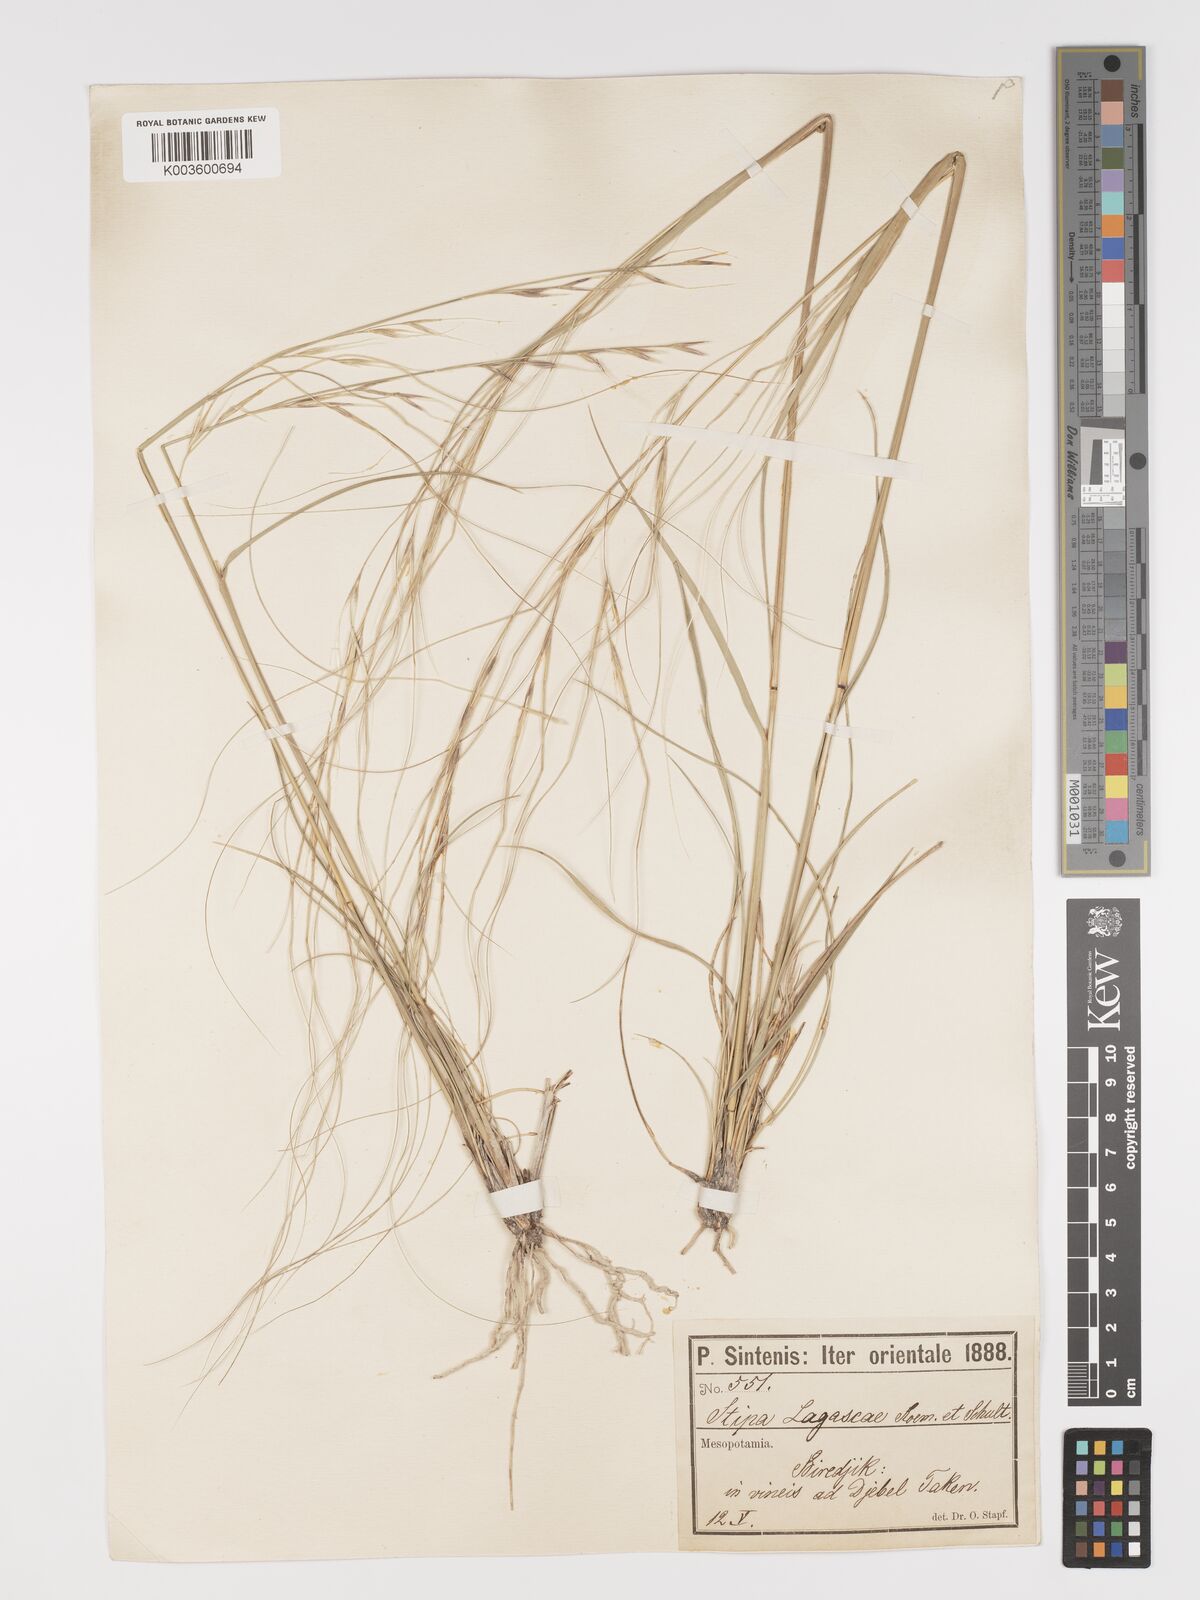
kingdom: Plantae
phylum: Tracheophyta
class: Liliopsida
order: Poales
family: Poaceae
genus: Stipa
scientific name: Stipa holosericea
